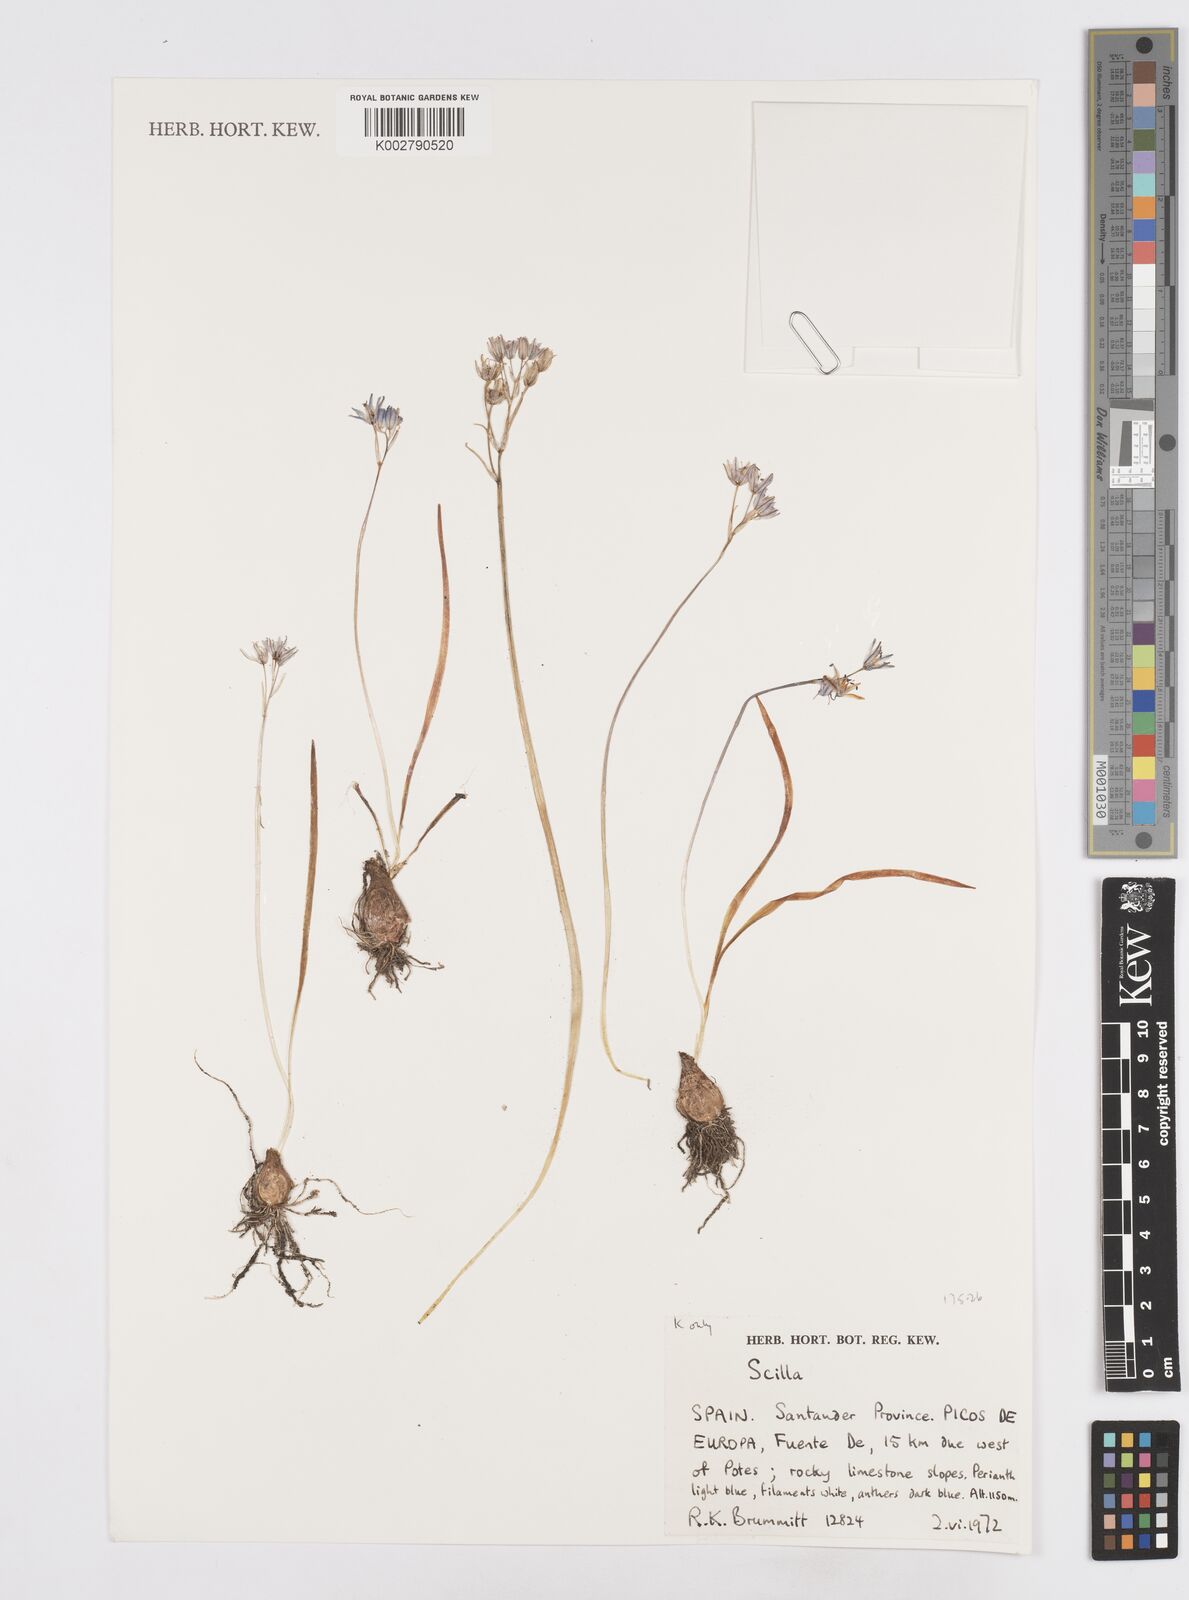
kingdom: Plantae
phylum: Tracheophyta
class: Liliopsida
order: Asparagales
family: Asparagaceae
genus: Scilla
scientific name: Scilla
